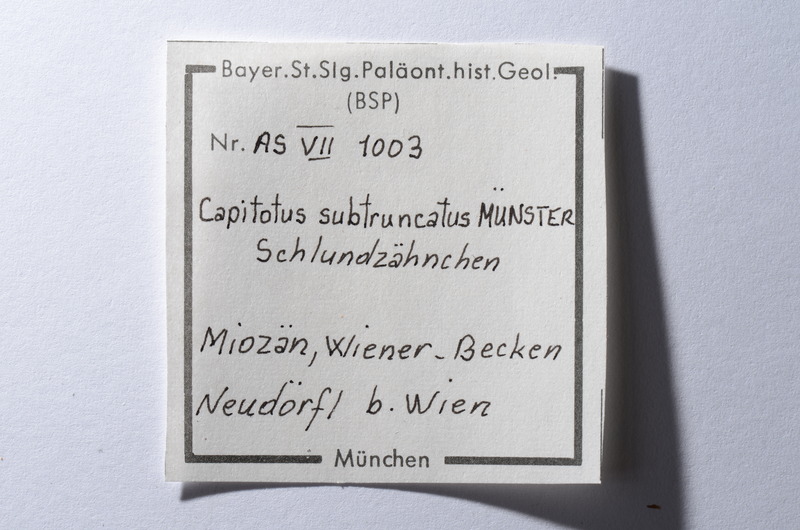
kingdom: Animalia
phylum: Chordata
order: Cypriniformes
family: Cyprinidae
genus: Capitodus
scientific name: Capitodus
